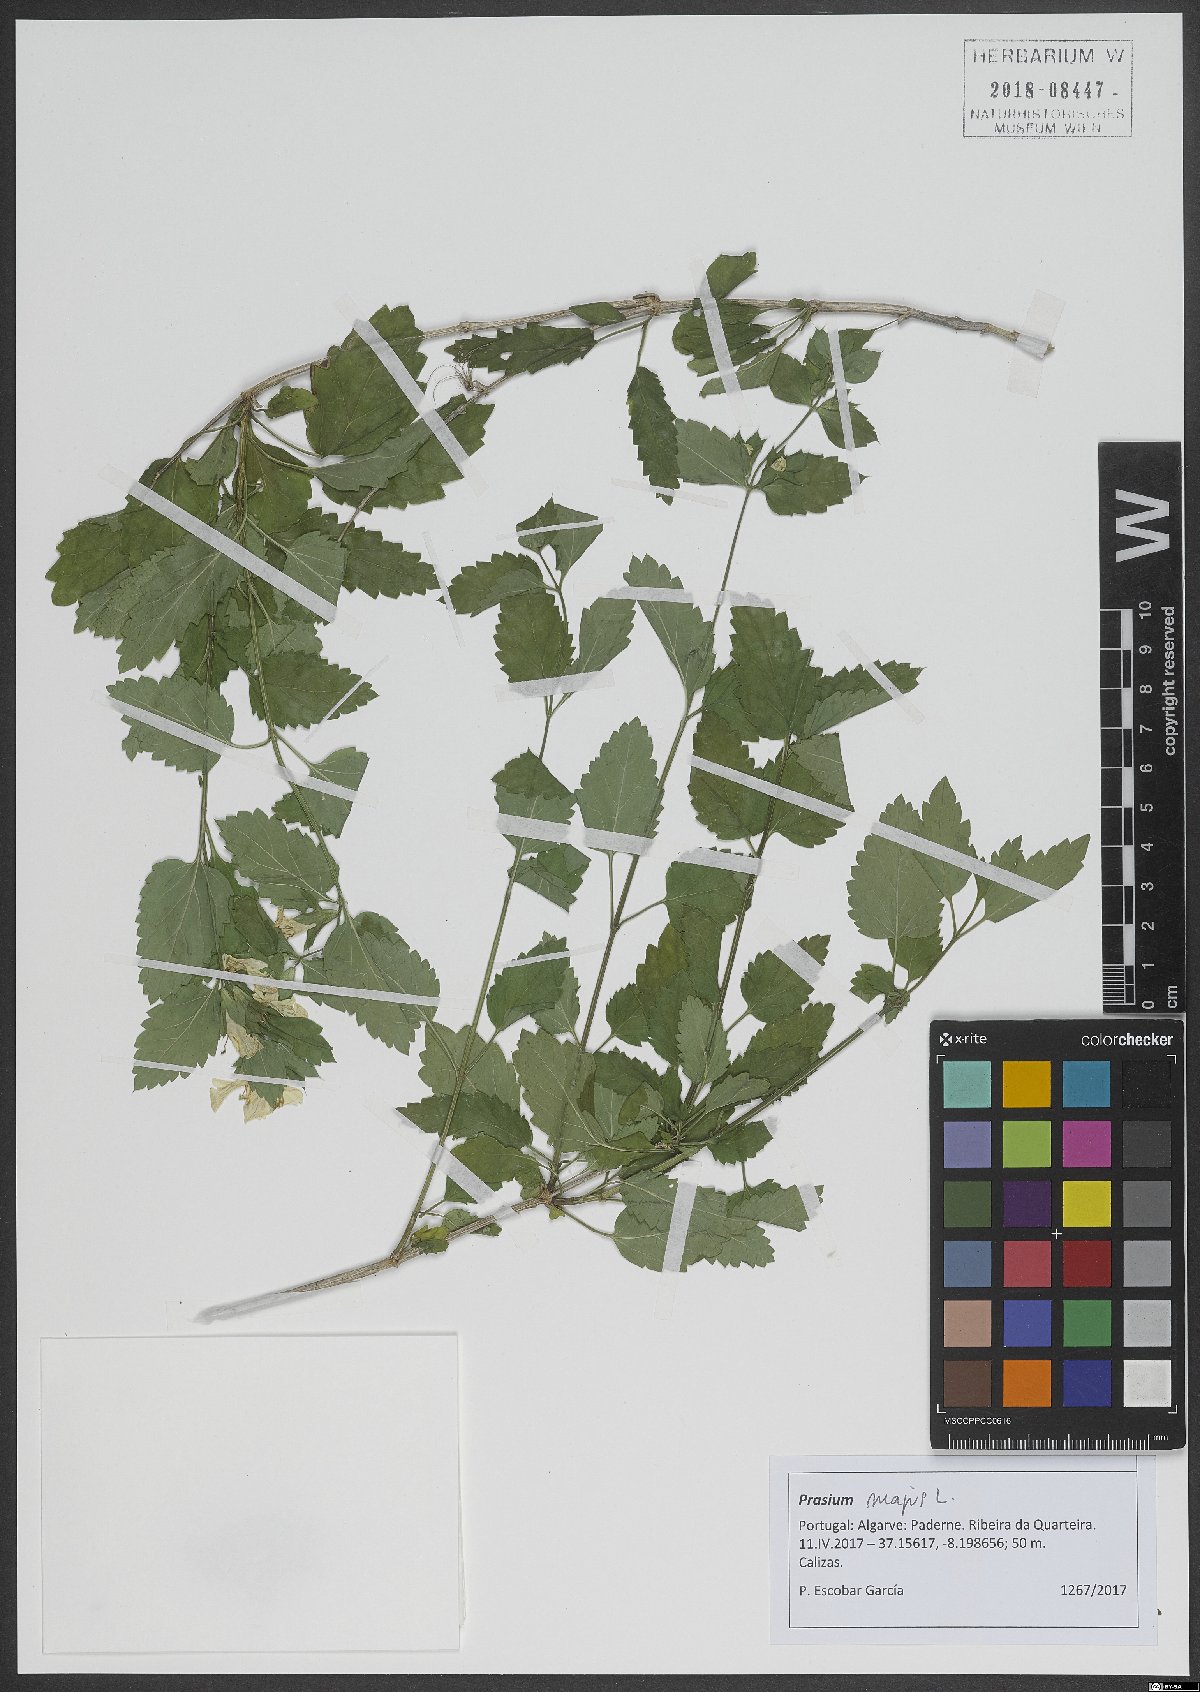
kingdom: Plantae
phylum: Tracheophyta
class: Magnoliopsida
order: Lamiales
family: Lamiaceae
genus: Prasium
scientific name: Prasium majus
